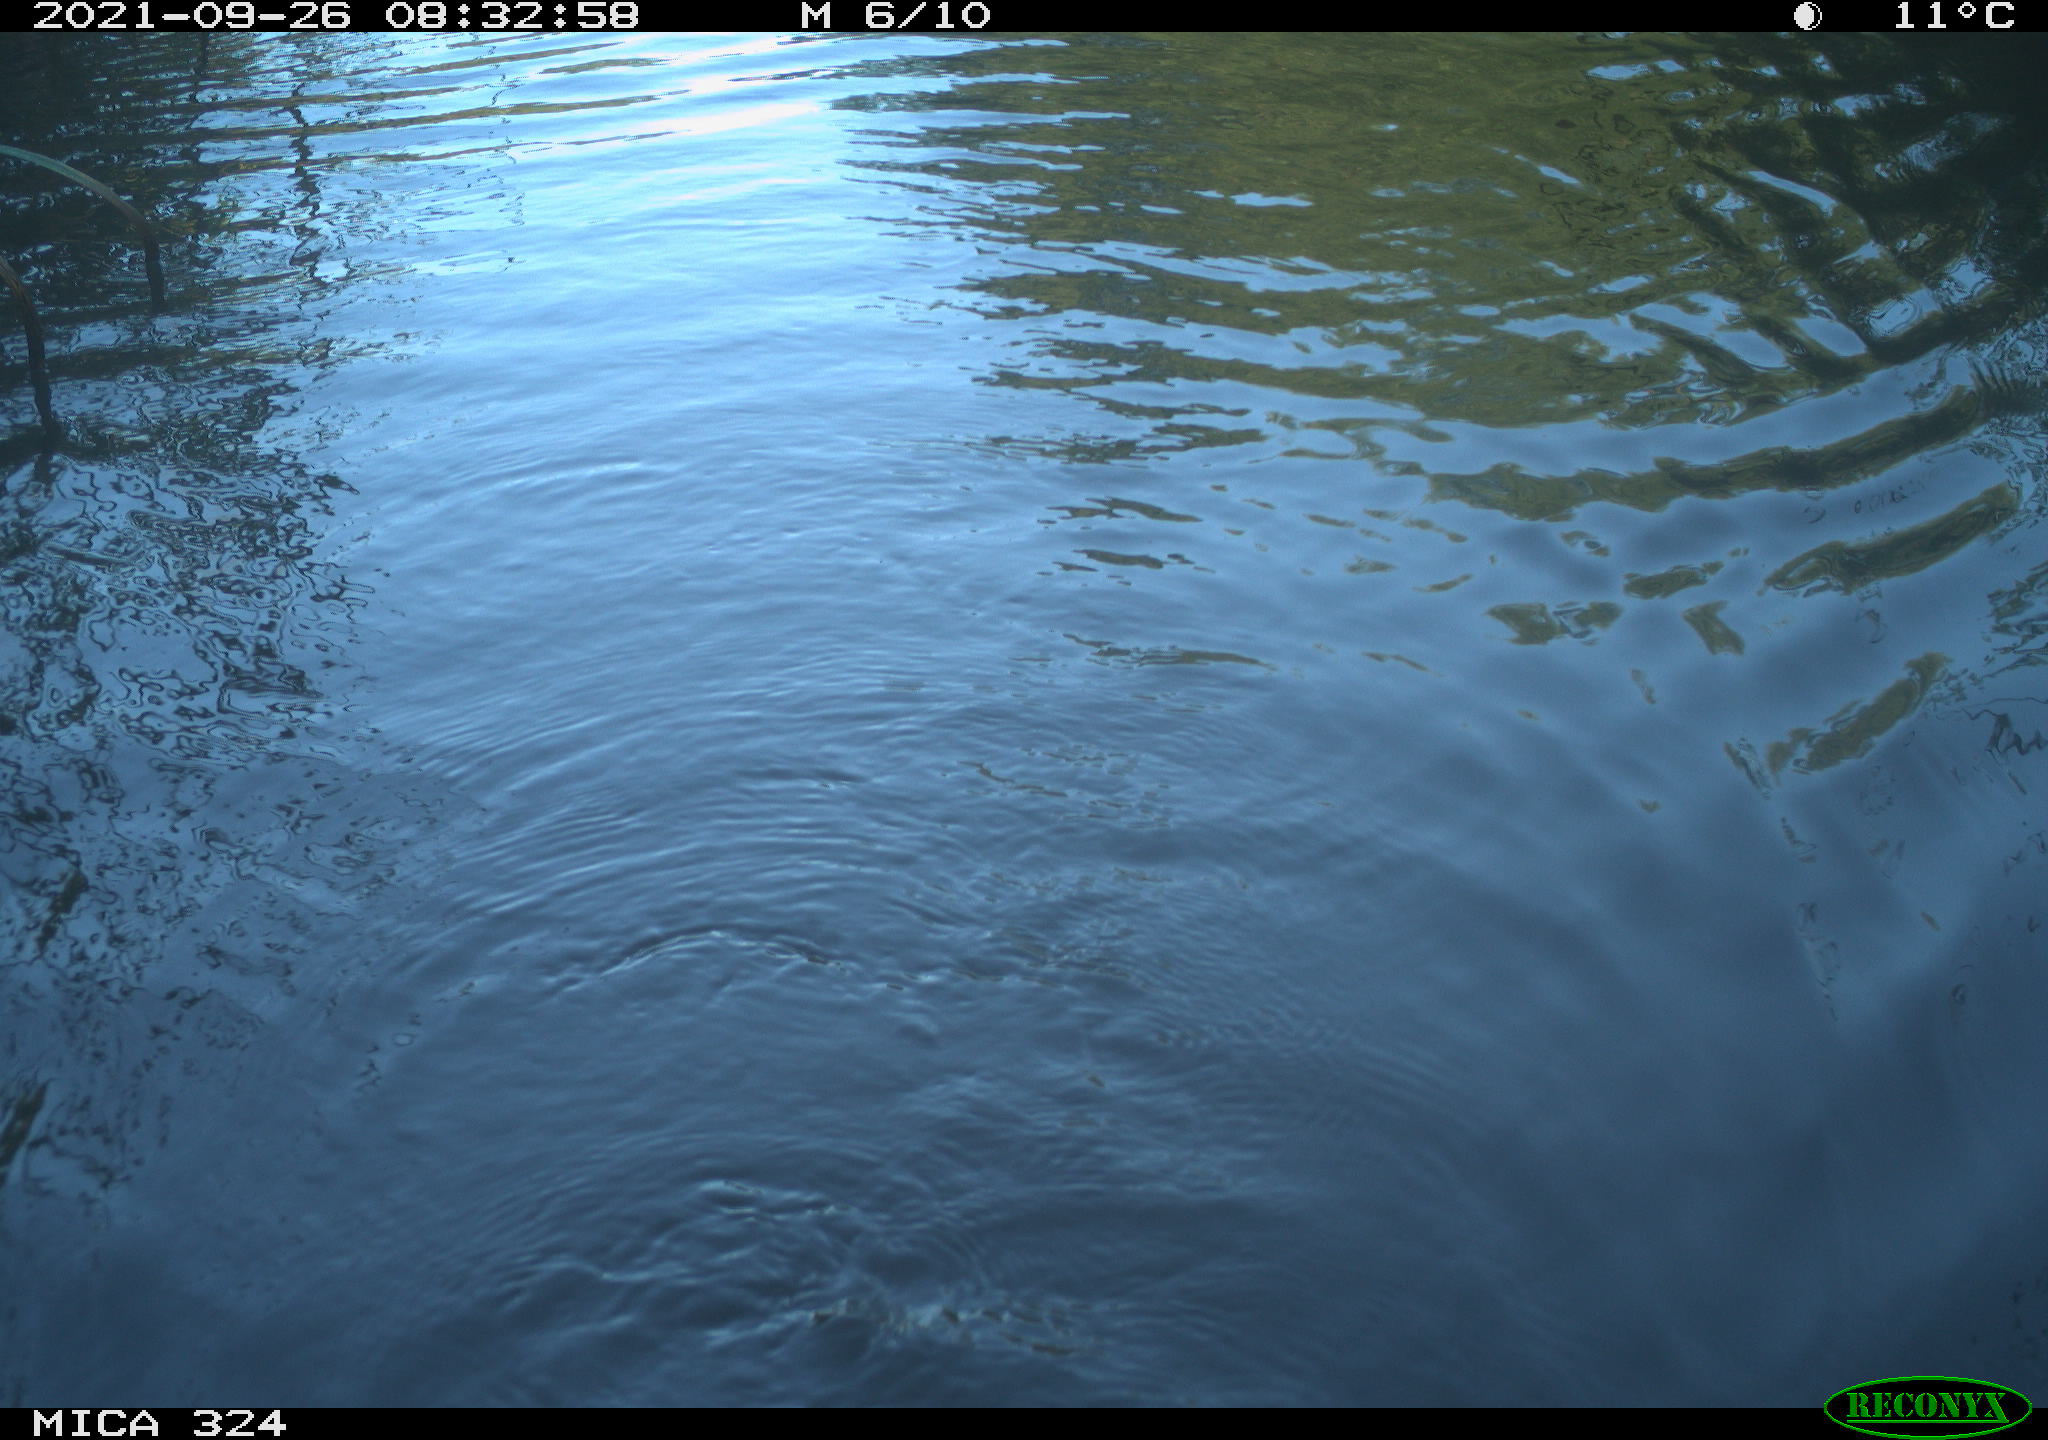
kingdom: Animalia
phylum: Chordata
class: Mammalia
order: Rodentia
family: Cricetidae
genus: Ondatra
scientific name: Ondatra zibethicus
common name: Muskrat
